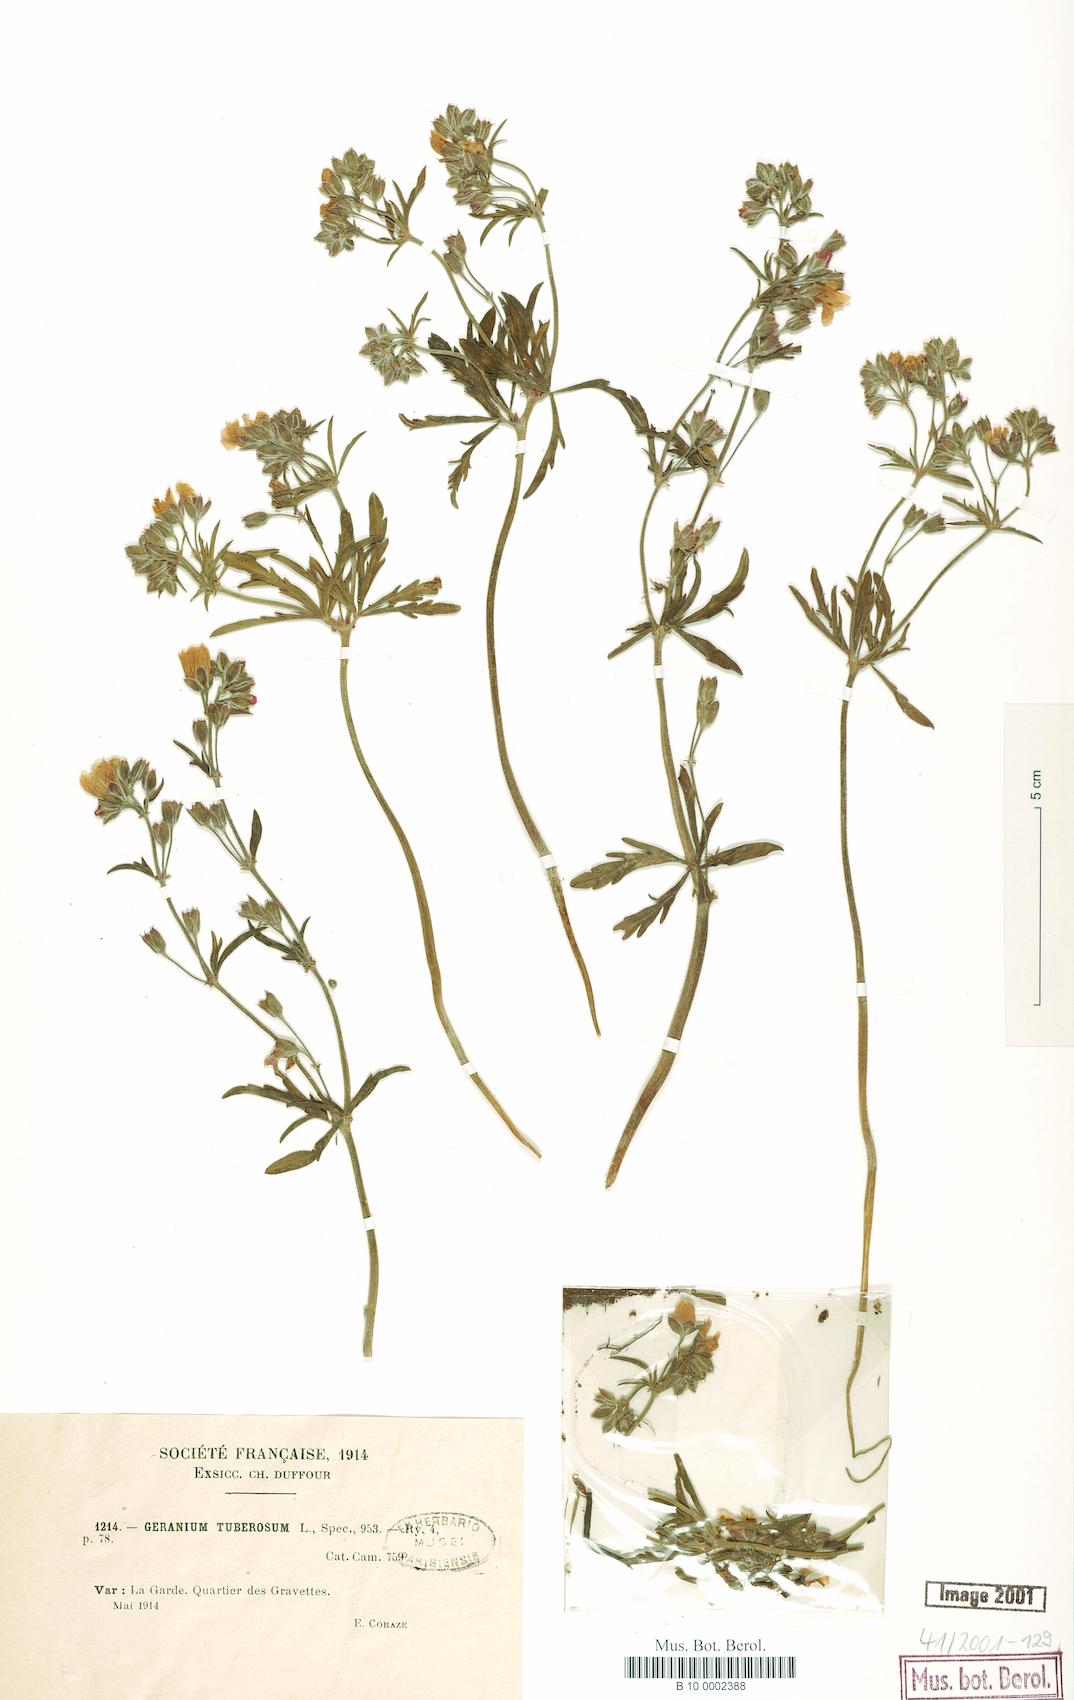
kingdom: Plantae
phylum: Tracheophyta
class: Magnoliopsida
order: Geraniales
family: Geraniaceae
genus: Geranium
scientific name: Geranium tuberosum
